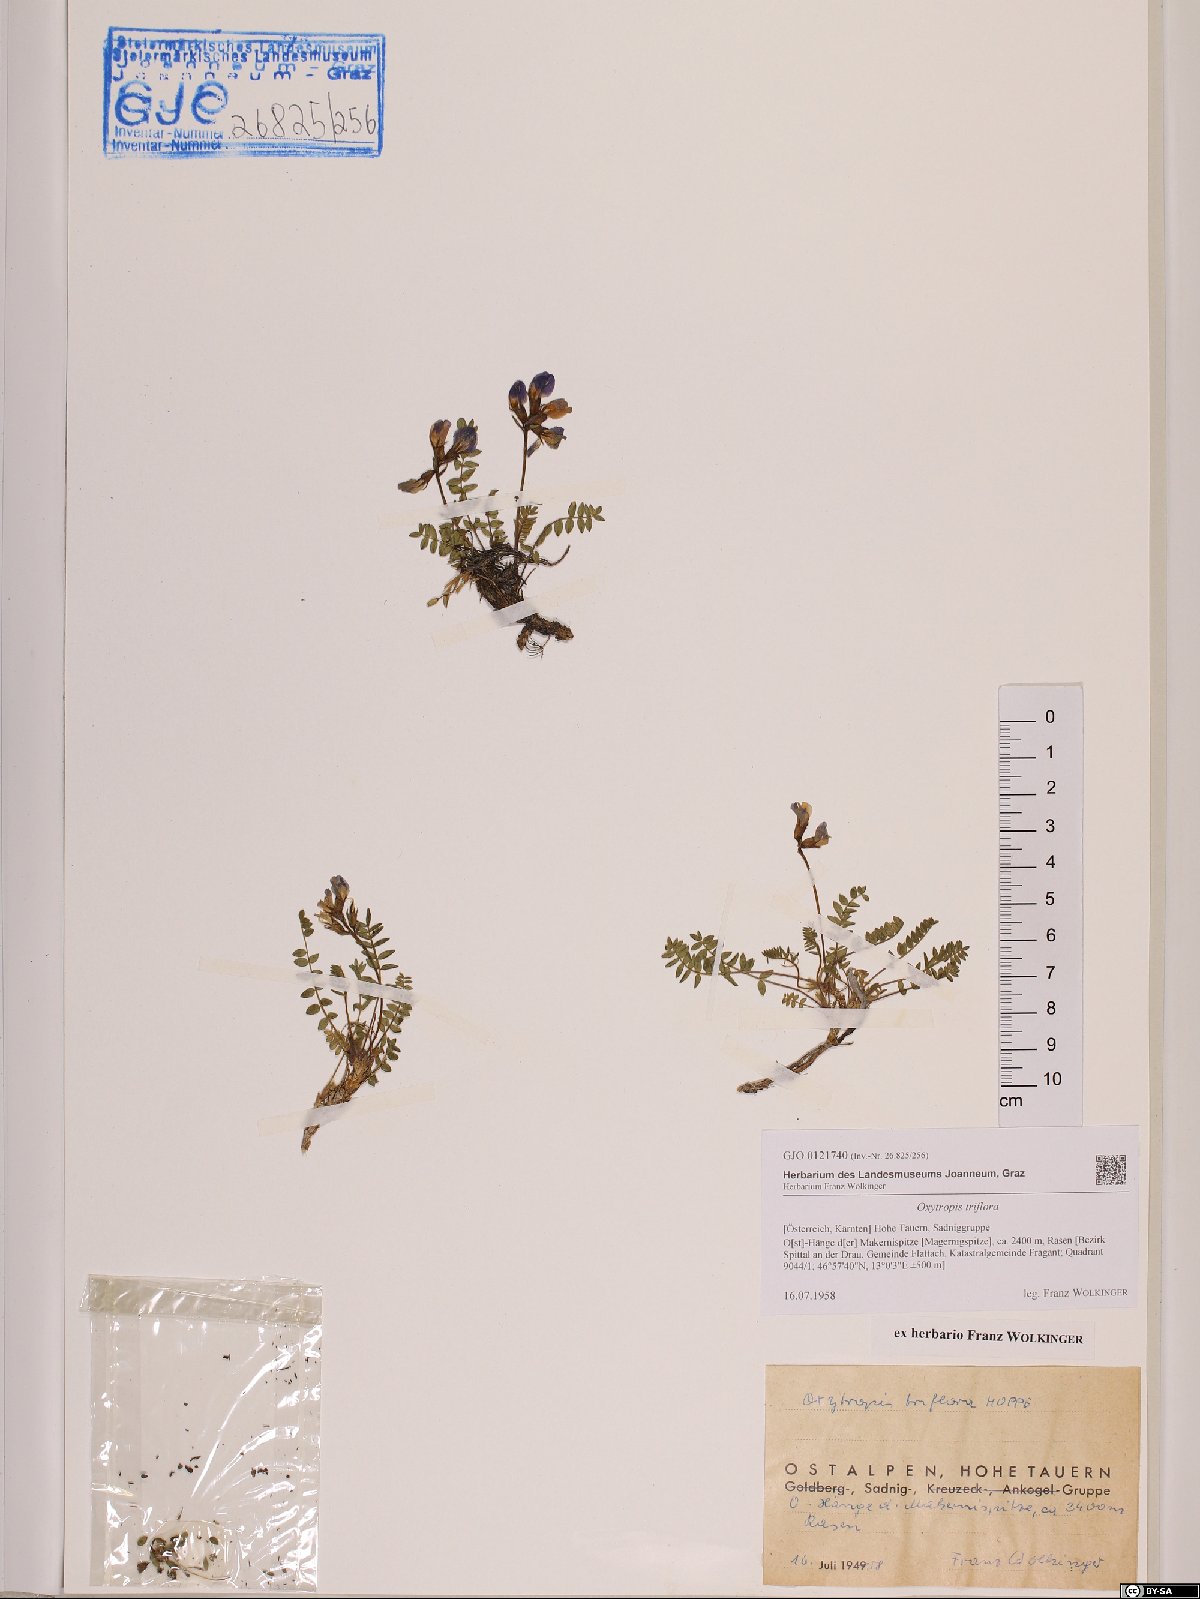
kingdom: Plantae
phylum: Tracheophyta
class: Magnoliopsida
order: Fabales
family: Fabaceae
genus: Oxytropis
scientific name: Oxytropis triflora
